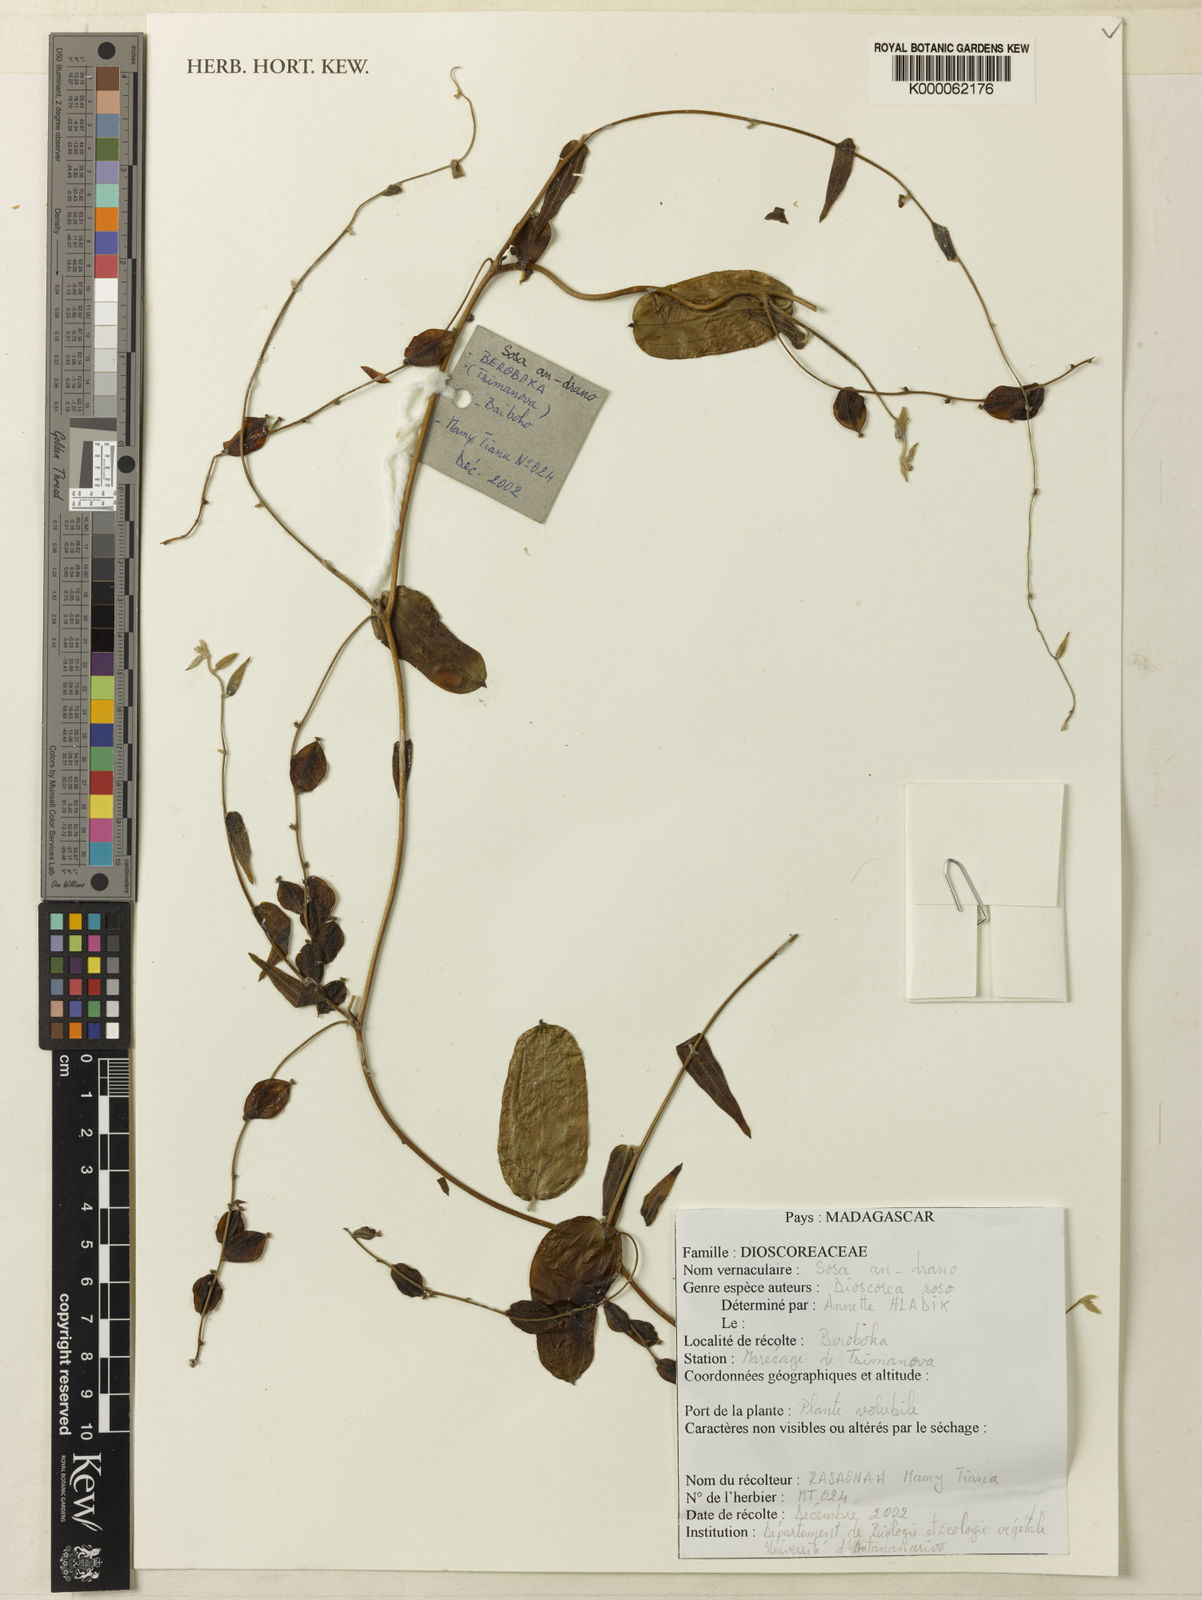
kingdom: Plantae
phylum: Tracheophyta
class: Liliopsida
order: Dioscoreales
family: Dioscoreaceae
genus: Dioscorea
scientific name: Dioscorea soso
